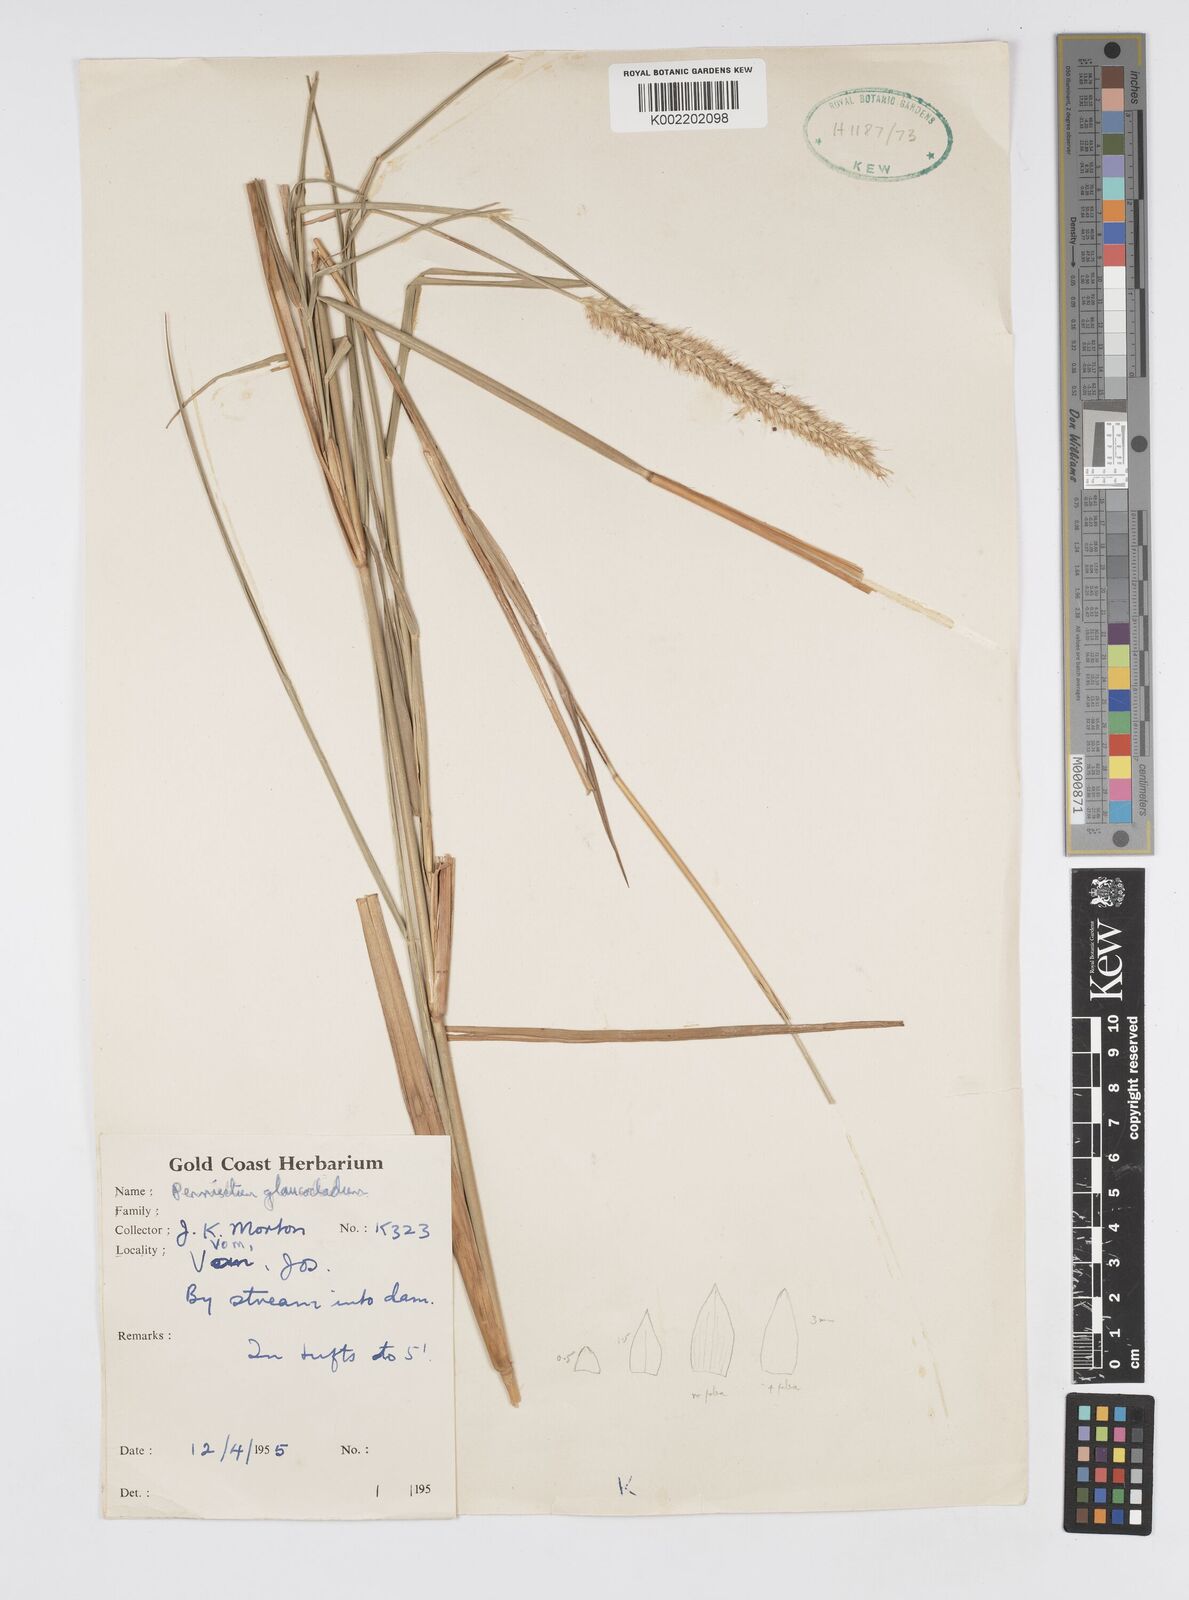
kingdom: Plantae
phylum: Tracheophyta
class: Liliopsida
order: Poales
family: Poaceae
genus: Cenchrus
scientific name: Cenchrus caudatus
